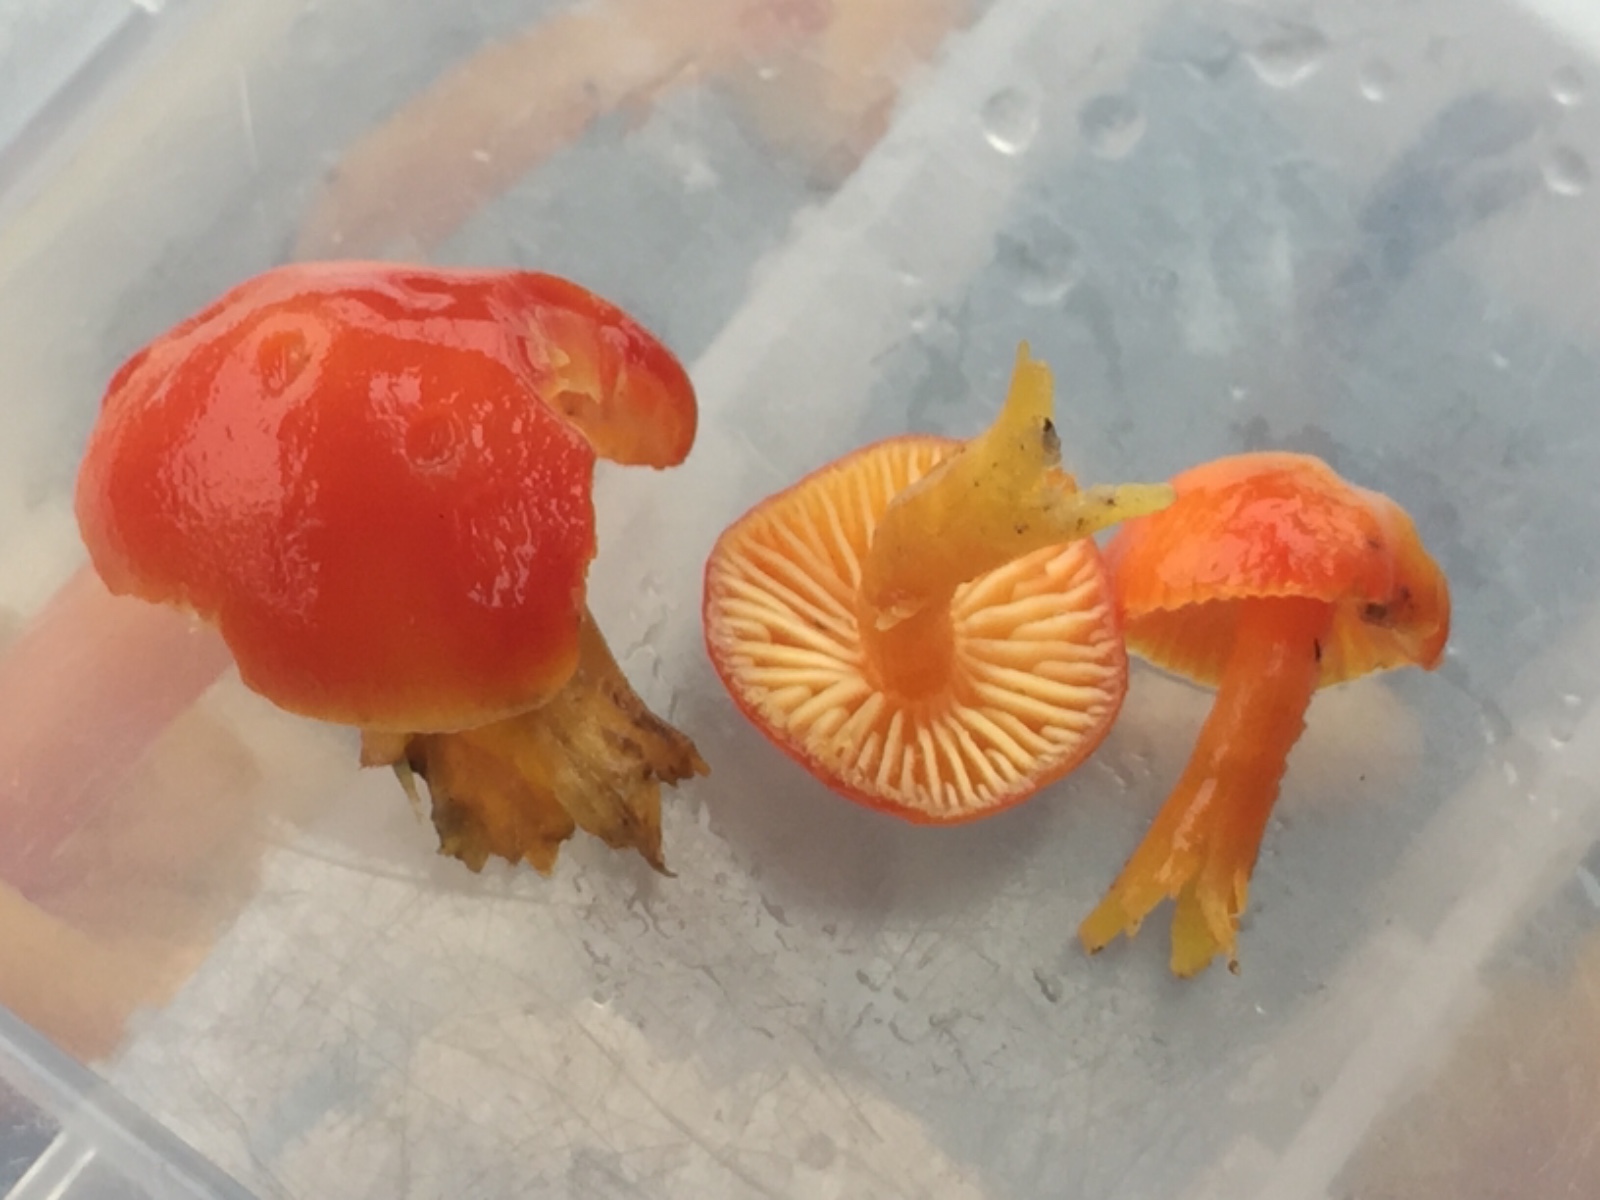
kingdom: Fungi
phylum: Basidiomycota
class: Agaricomycetes
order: Agaricales
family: Hygrophoraceae
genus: Hygrocybe
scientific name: Hygrocybe miniata
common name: mønje-vokshat
